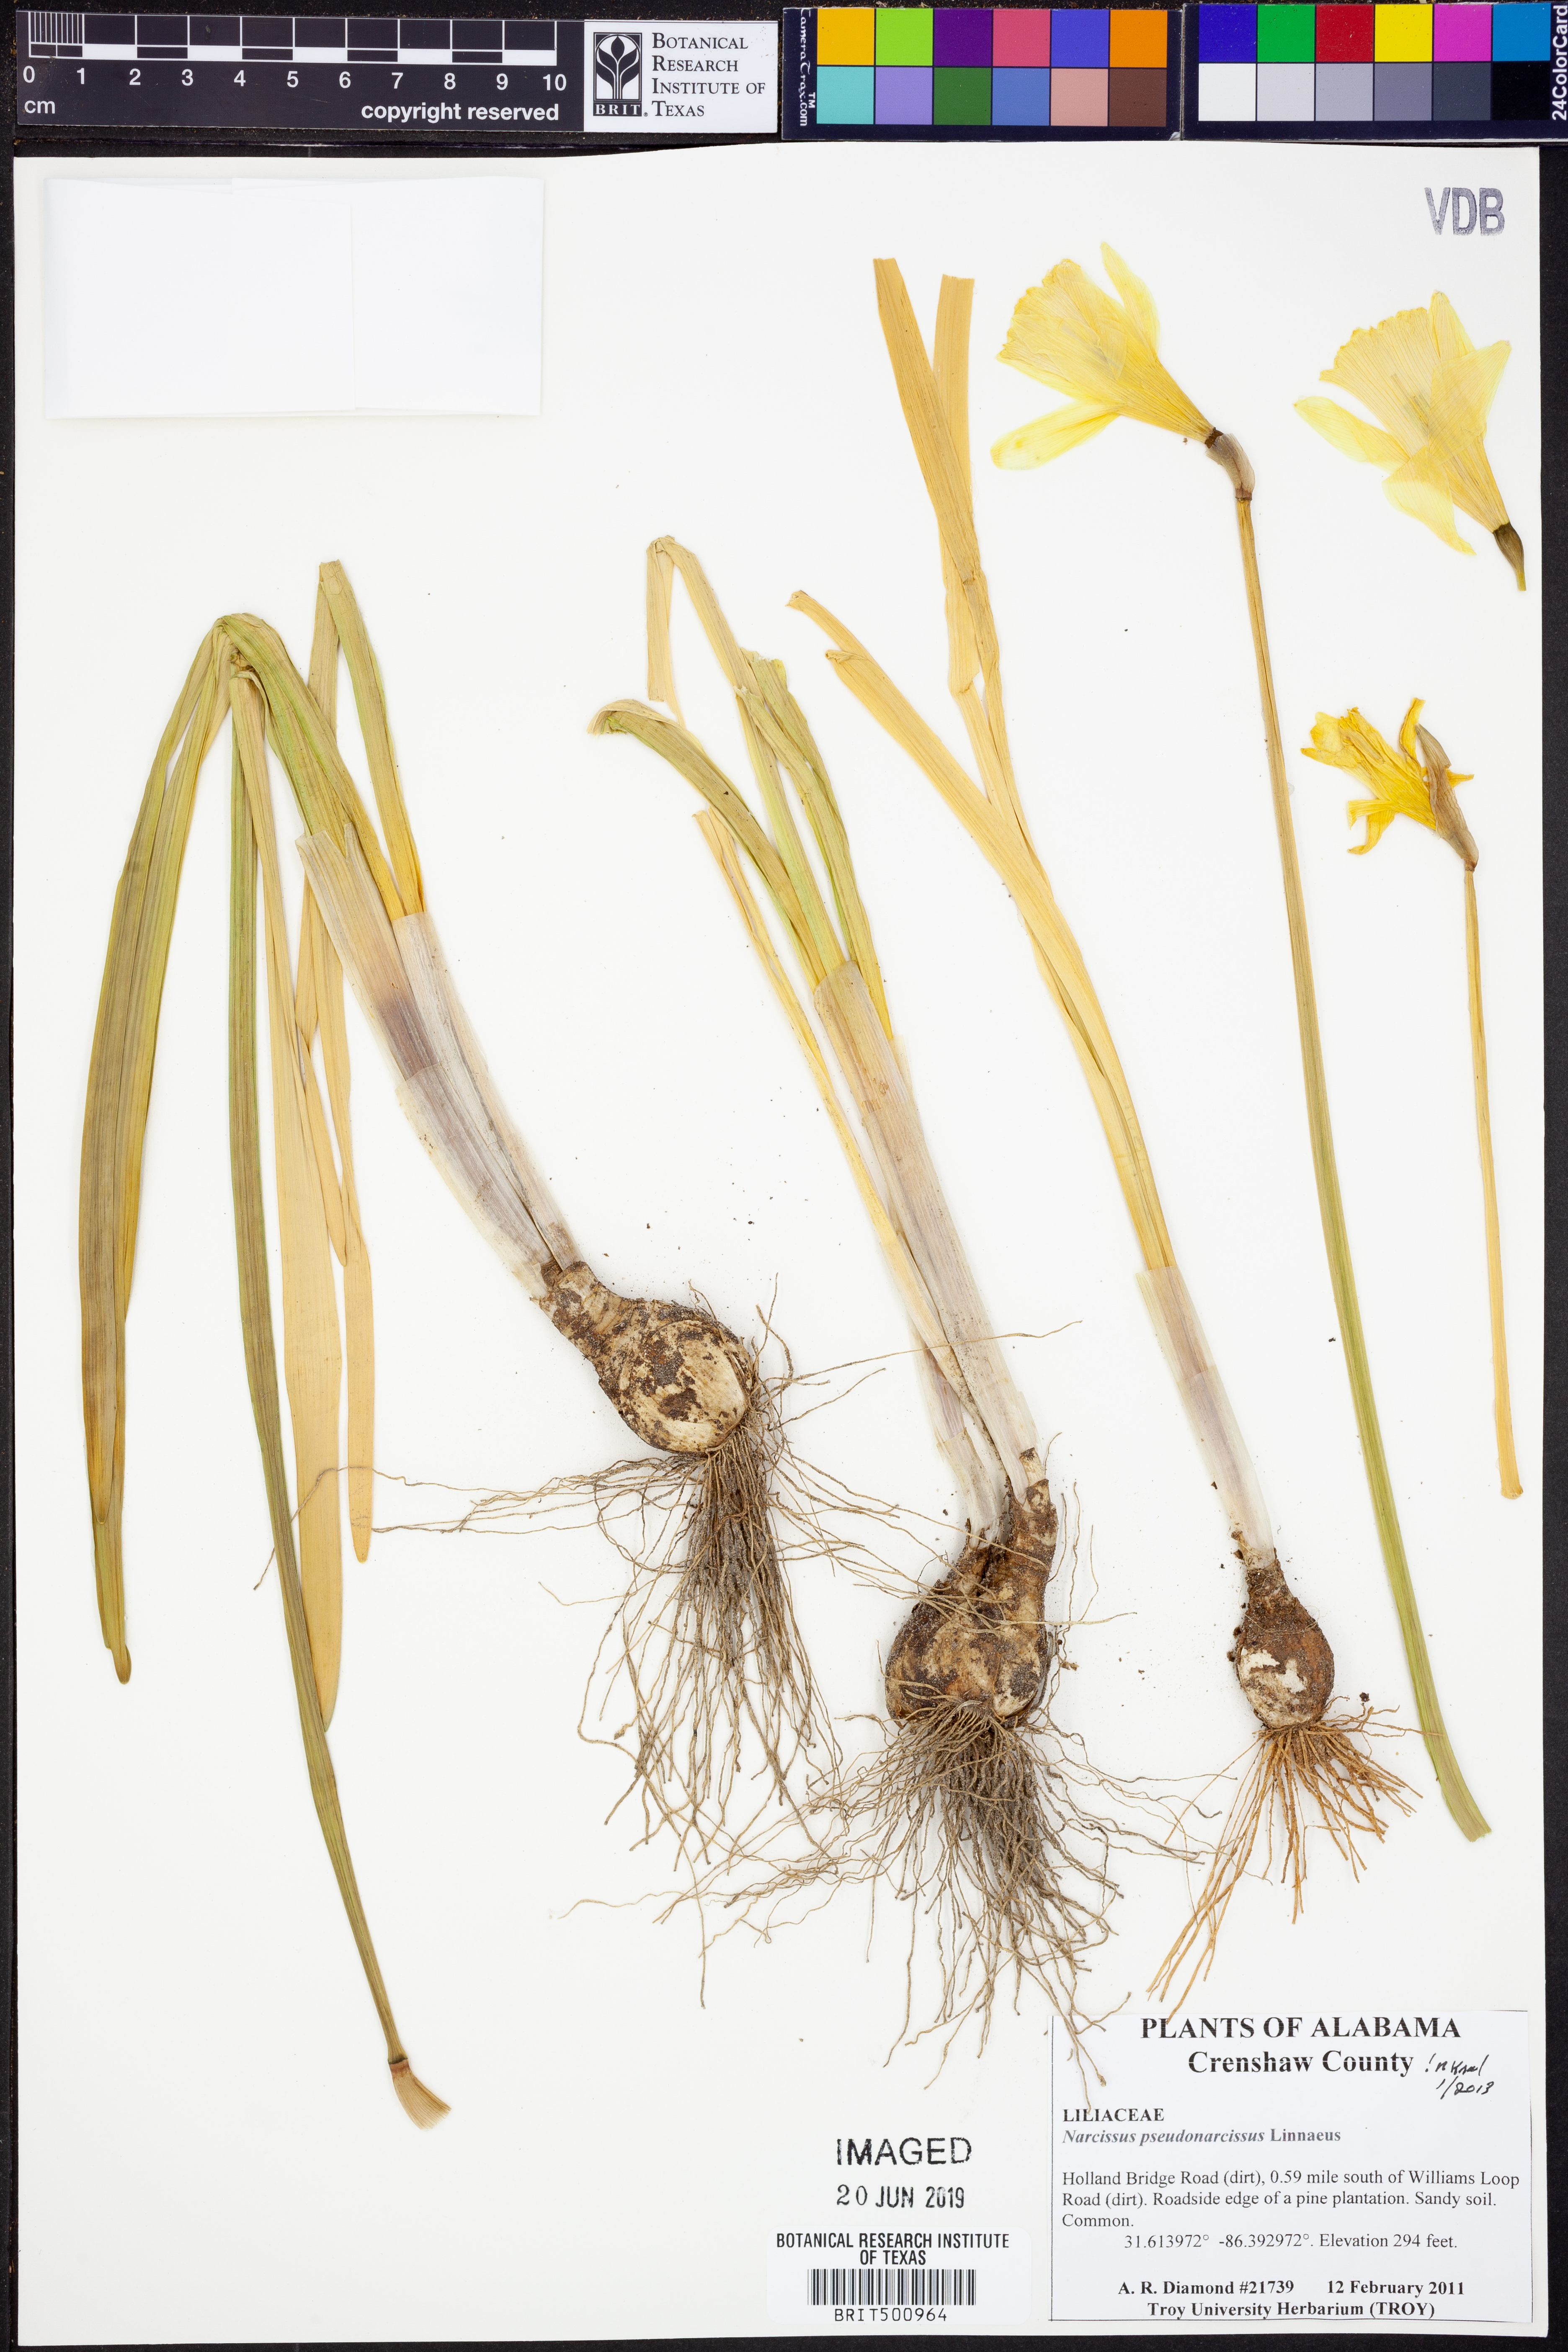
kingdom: Plantae
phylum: Tracheophyta
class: Liliopsida
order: Asparagales
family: Amaryllidaceae
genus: Narcissus
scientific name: Narcissus pseudonarcissus
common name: Daffodil
